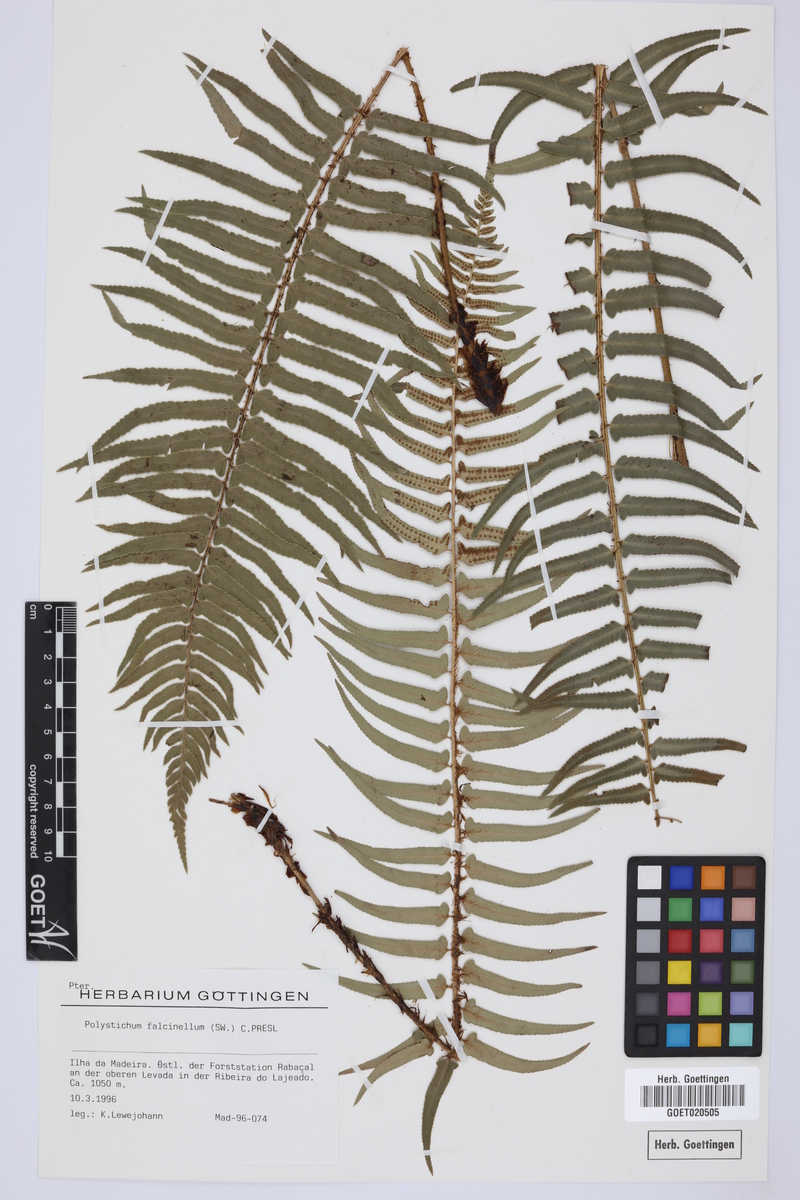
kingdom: Plantae
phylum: Tracheophyta
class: Polypodiopsida
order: Polypodiales
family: Dryopteridaceae
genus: Polystichum
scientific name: Polystichum falcinellum
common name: Madeira sword-fern
